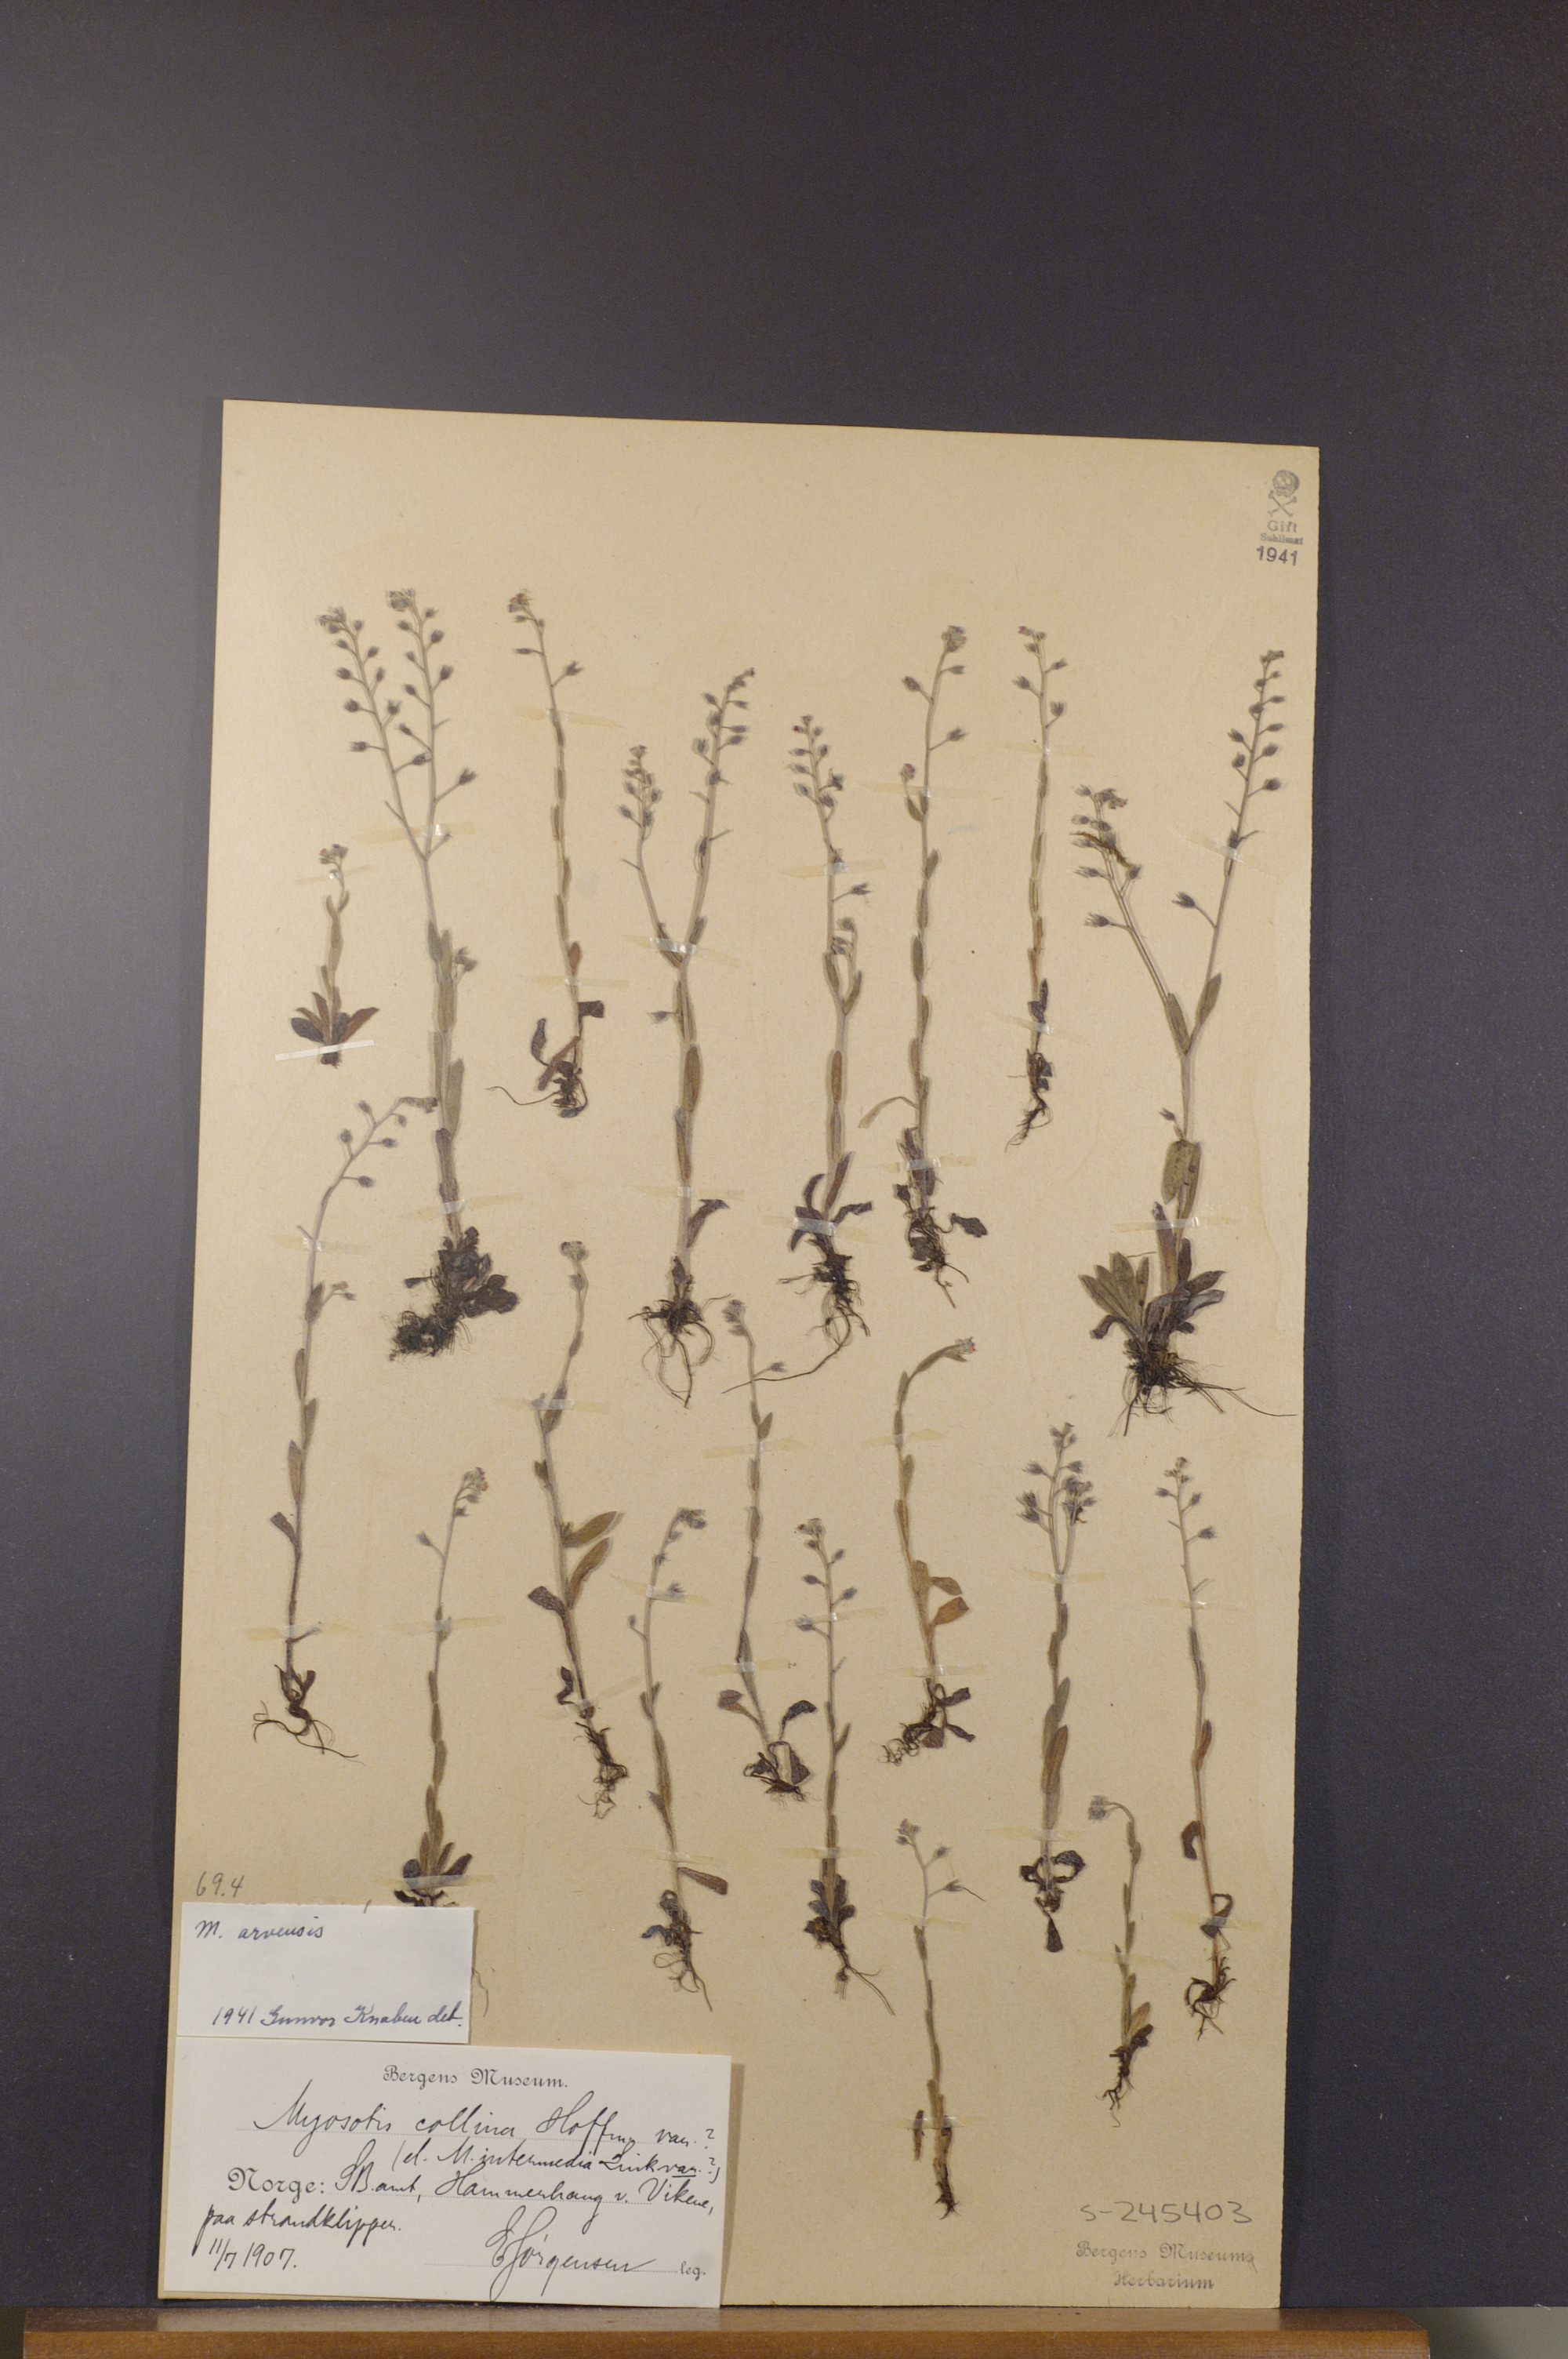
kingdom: Plantae
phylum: Tracheophyta
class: Magnoliopsida
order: Boraginales
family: Boraginaceae
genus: Myosotis
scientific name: Myosotis arvensis
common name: Field forget-me-not
